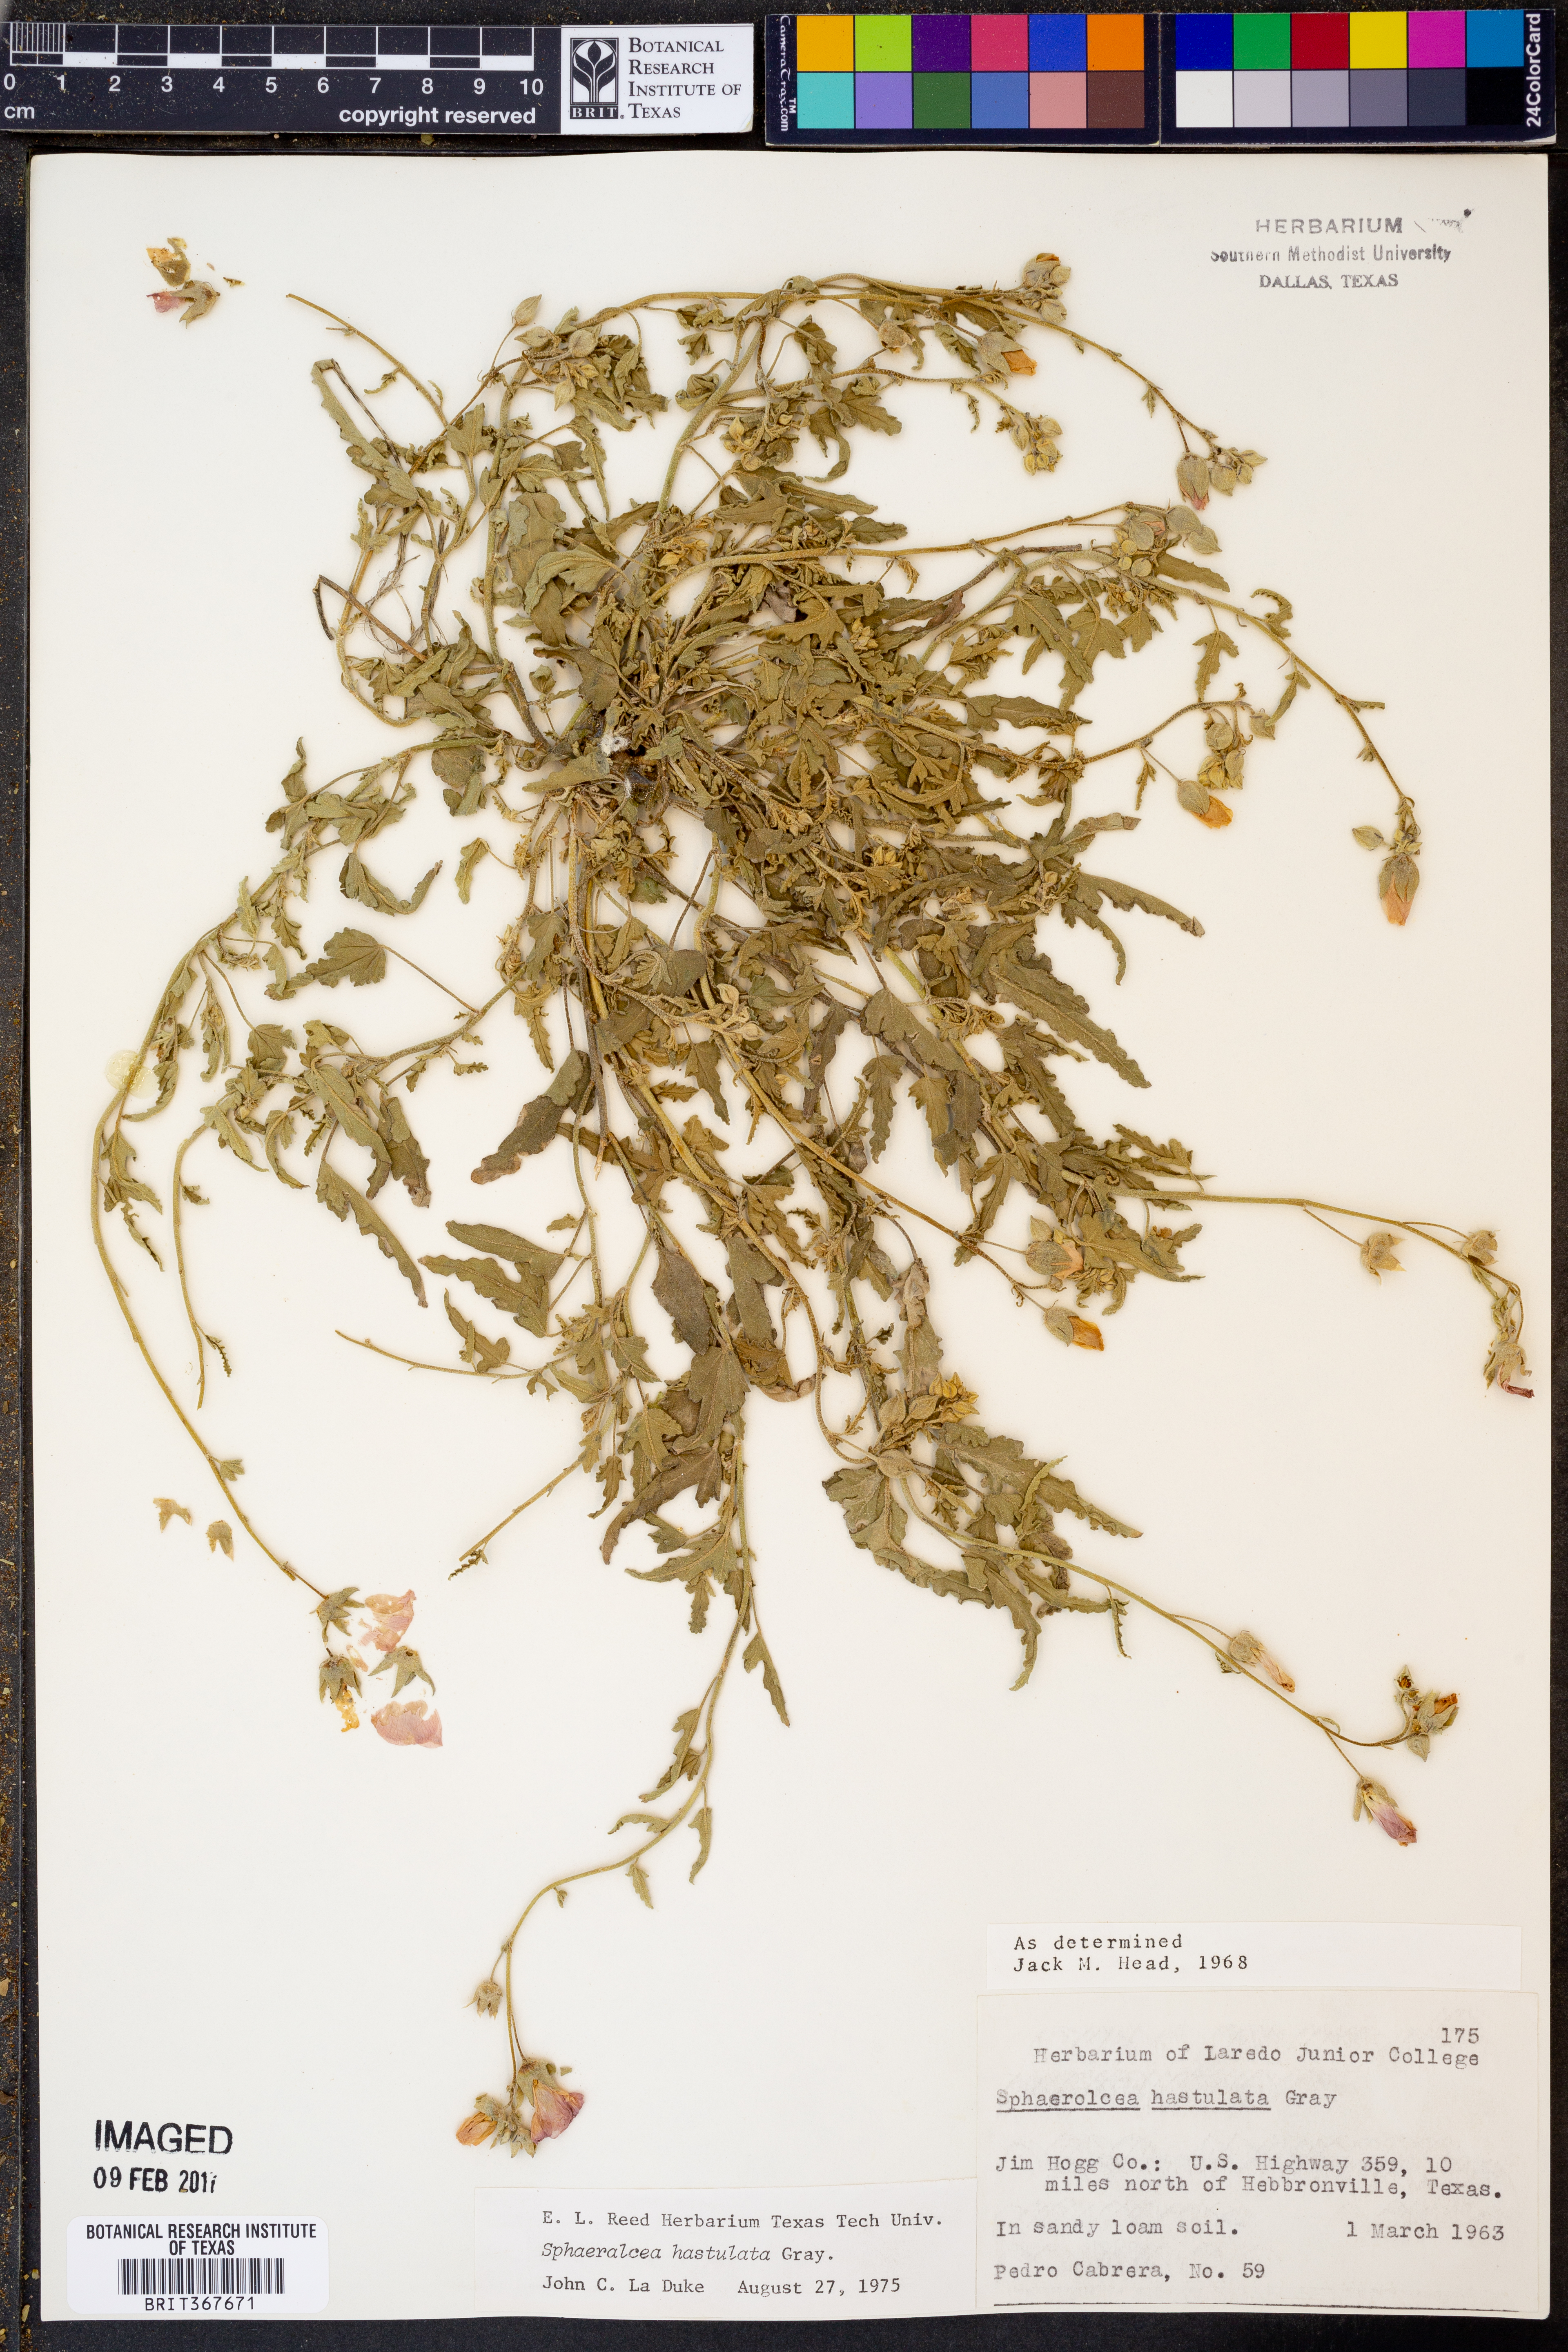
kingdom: Plantae
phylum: Tracheophyta
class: Magnoliopsida
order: Malvales
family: Malvaceae
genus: Sphaeralcea
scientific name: Sphaeralcea hastulata
